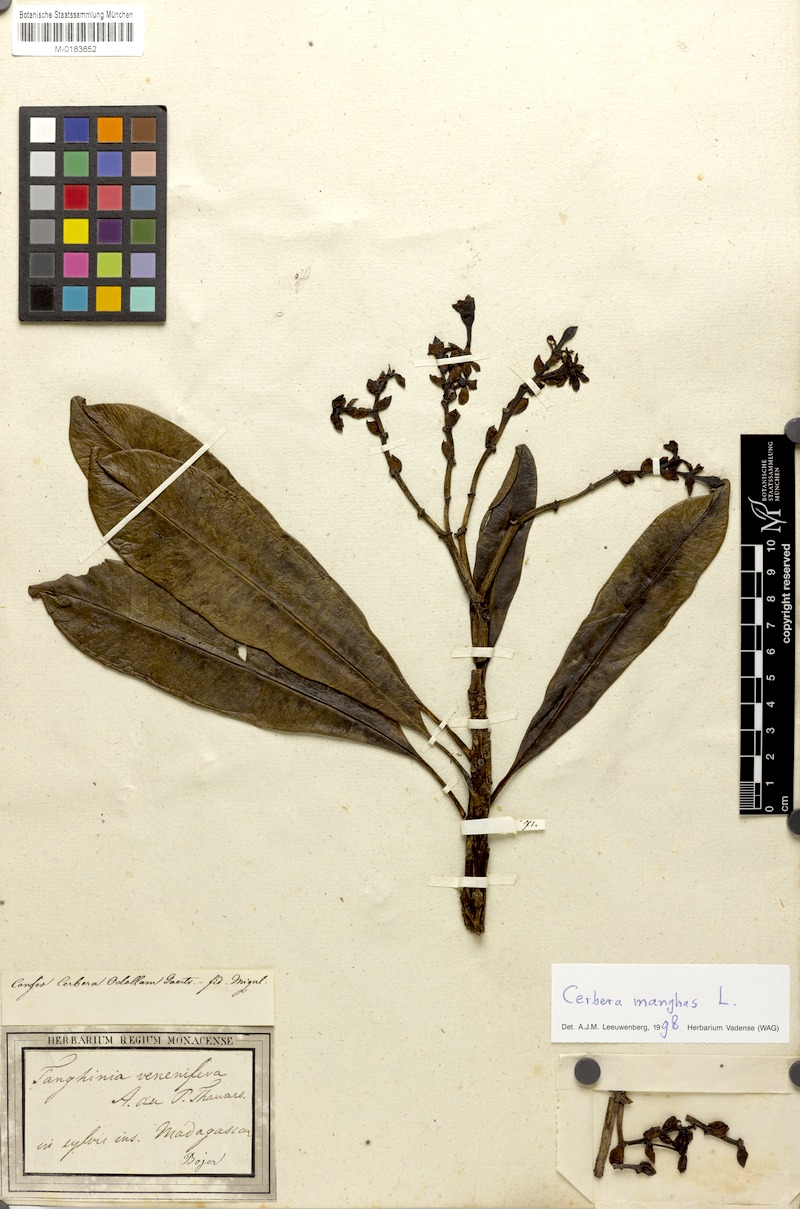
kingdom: Plantae
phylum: Tracheophyta
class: Magnoliopsida
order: Gentianales
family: Apocynaceae
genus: Cerbera
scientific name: Cerbera manghas
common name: Reva
